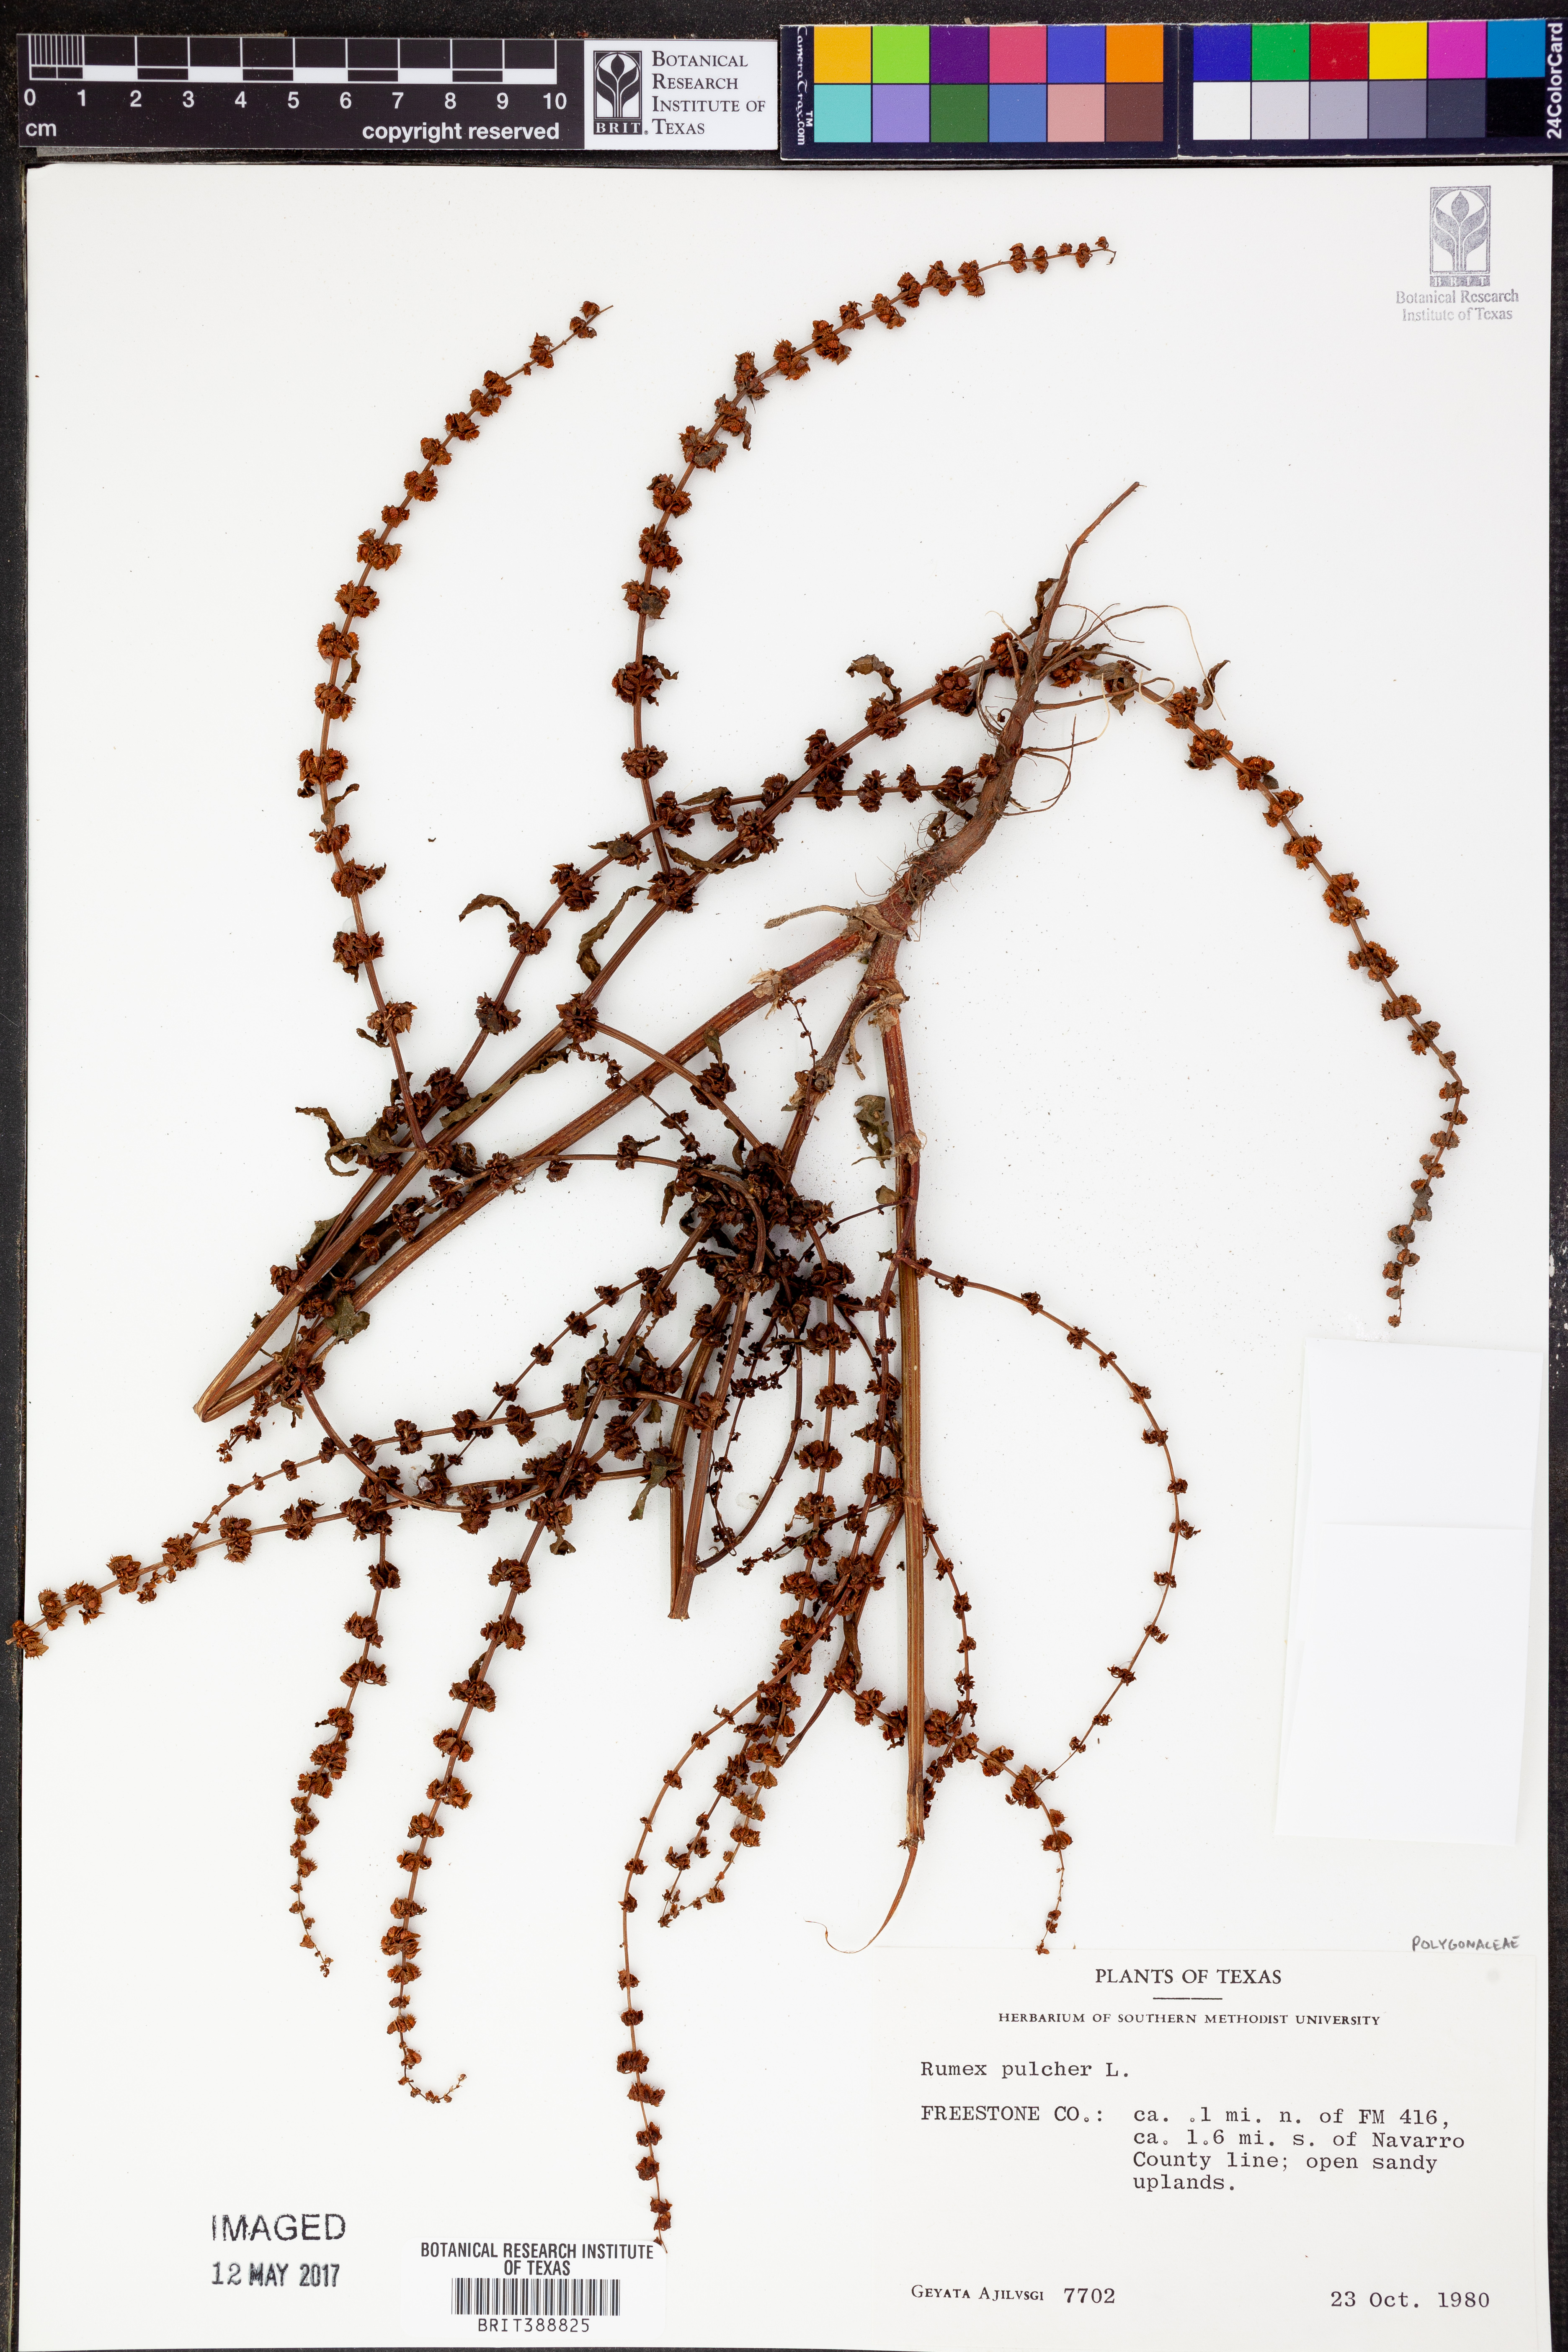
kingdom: Plantae
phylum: Tracheophyta
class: Magnoliopsida
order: Caryophyllales
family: Polygonaceae
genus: Rumex
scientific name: Rumex pulcher
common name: Fiddle dock
